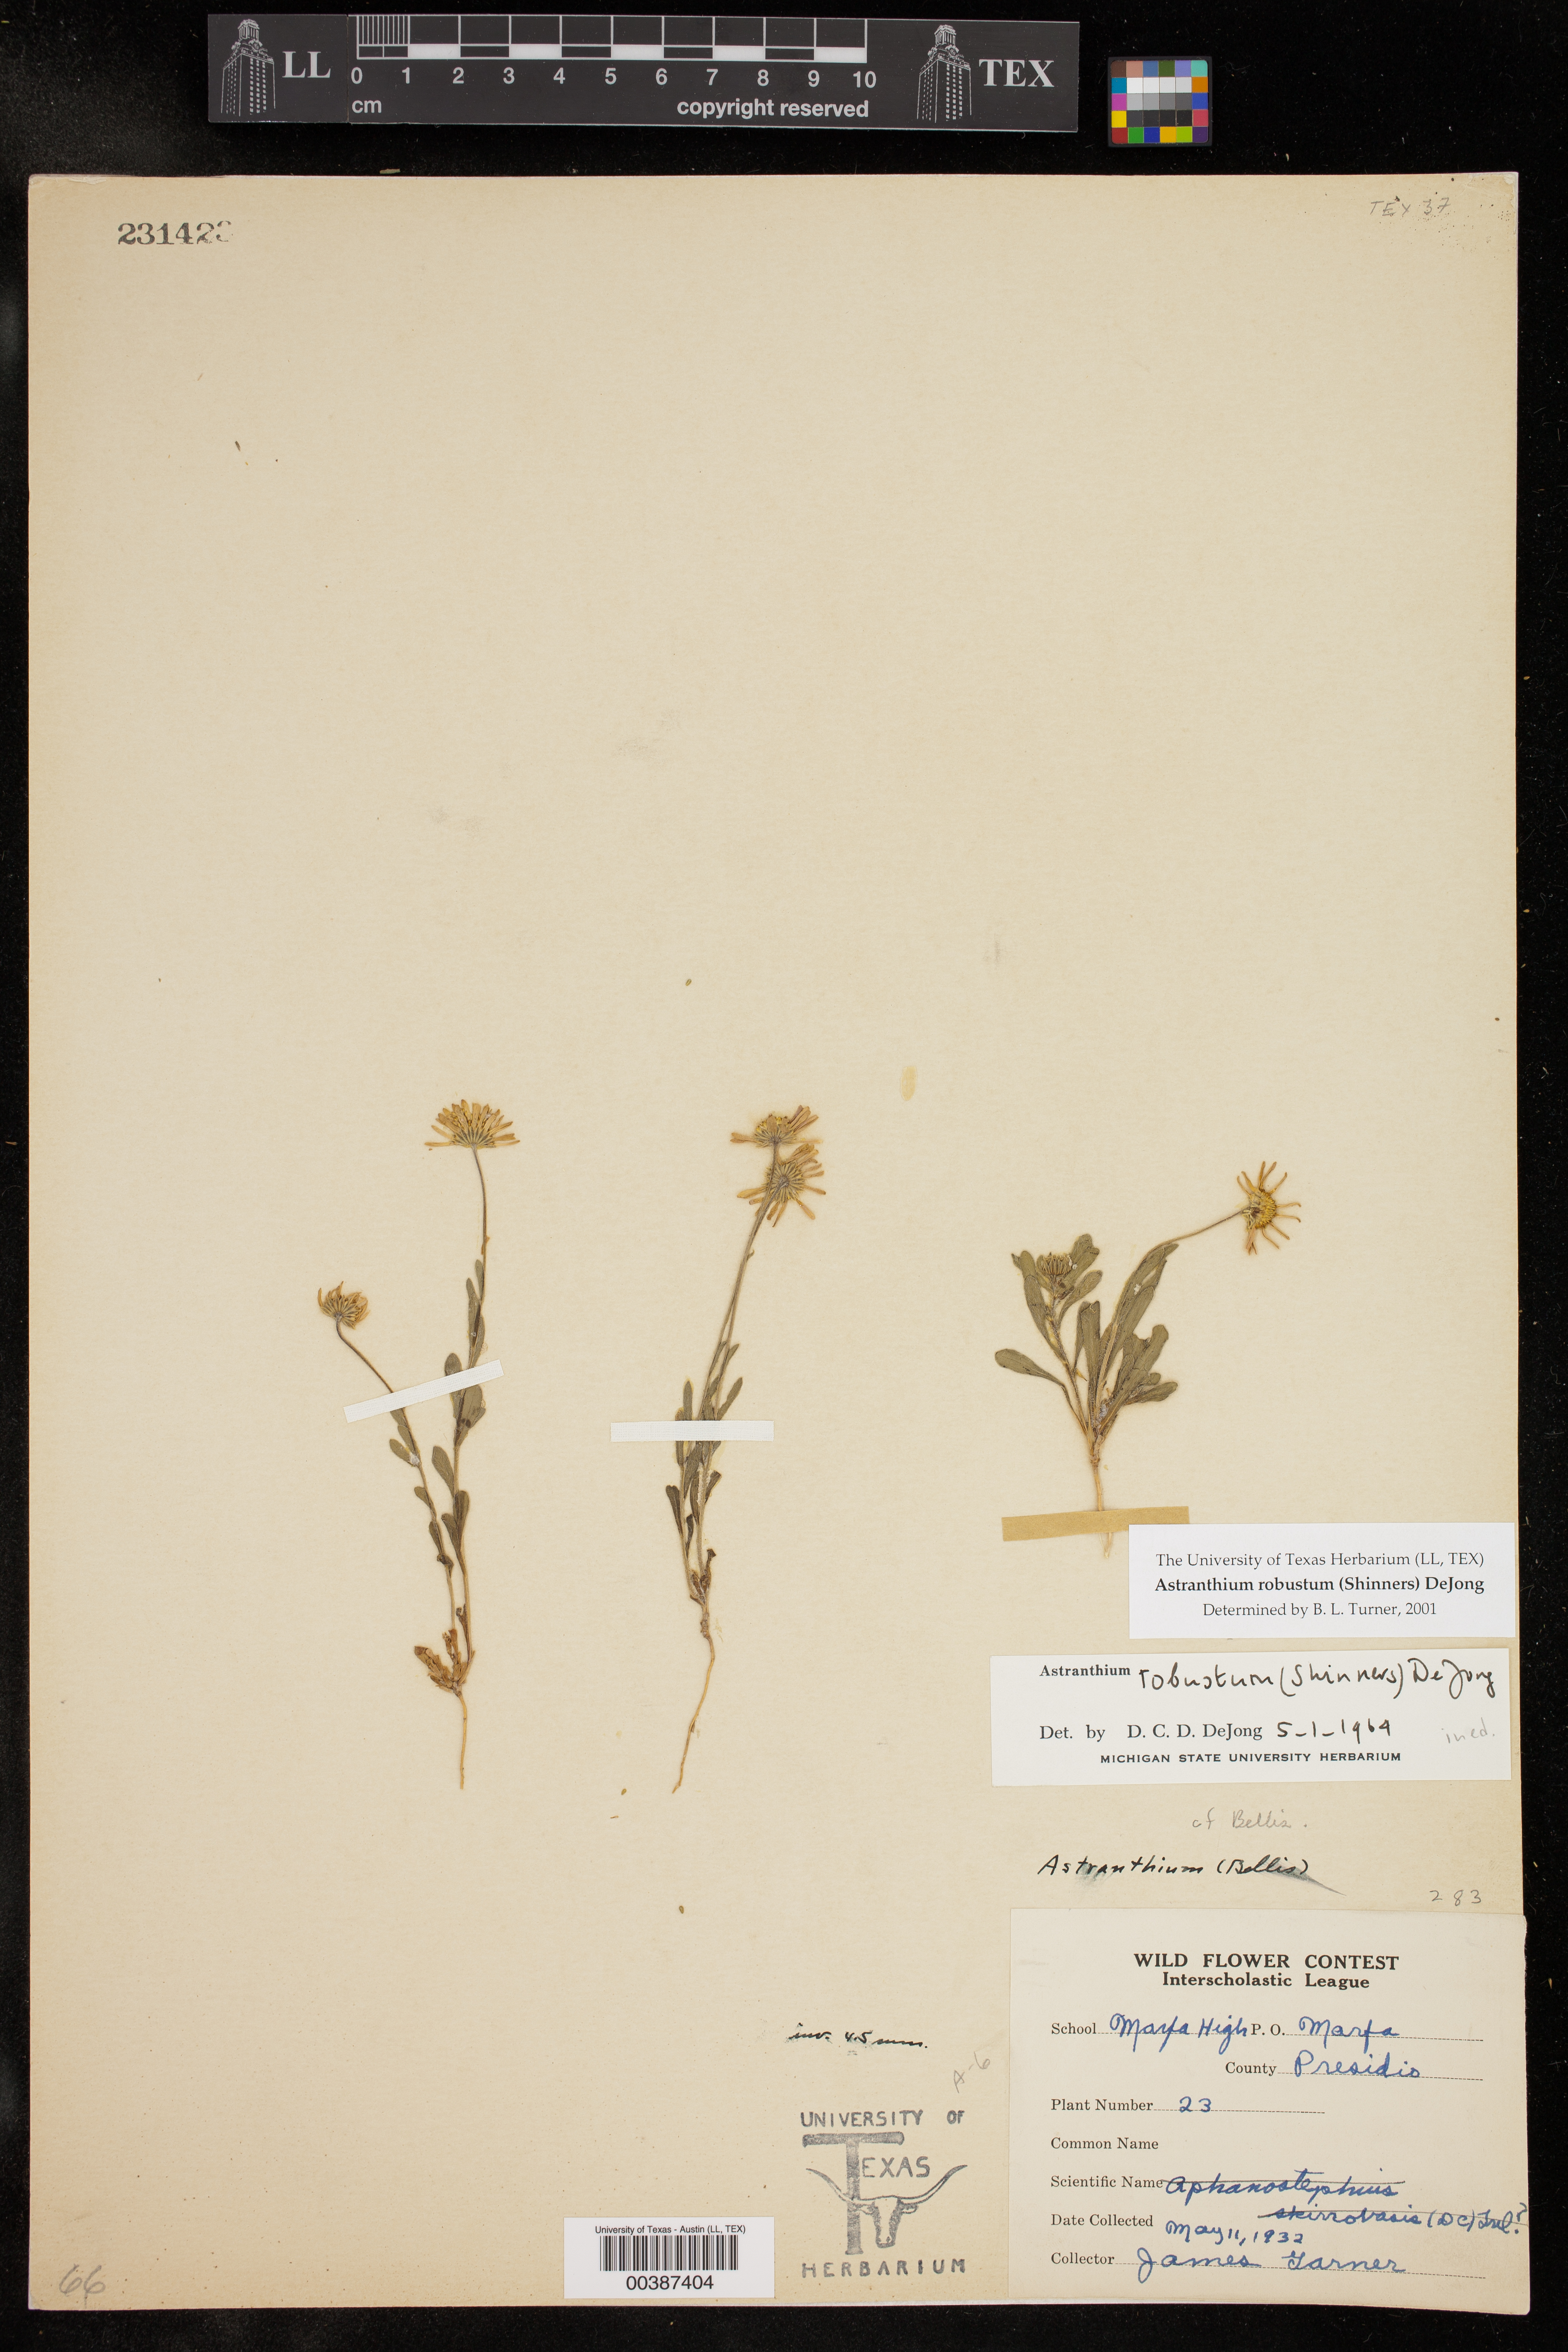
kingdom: Plantae
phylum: Tracheophyta
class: Magnoliopsida
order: Asterales
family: Asteraceae
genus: Astranthium
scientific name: Astranthium robustum
